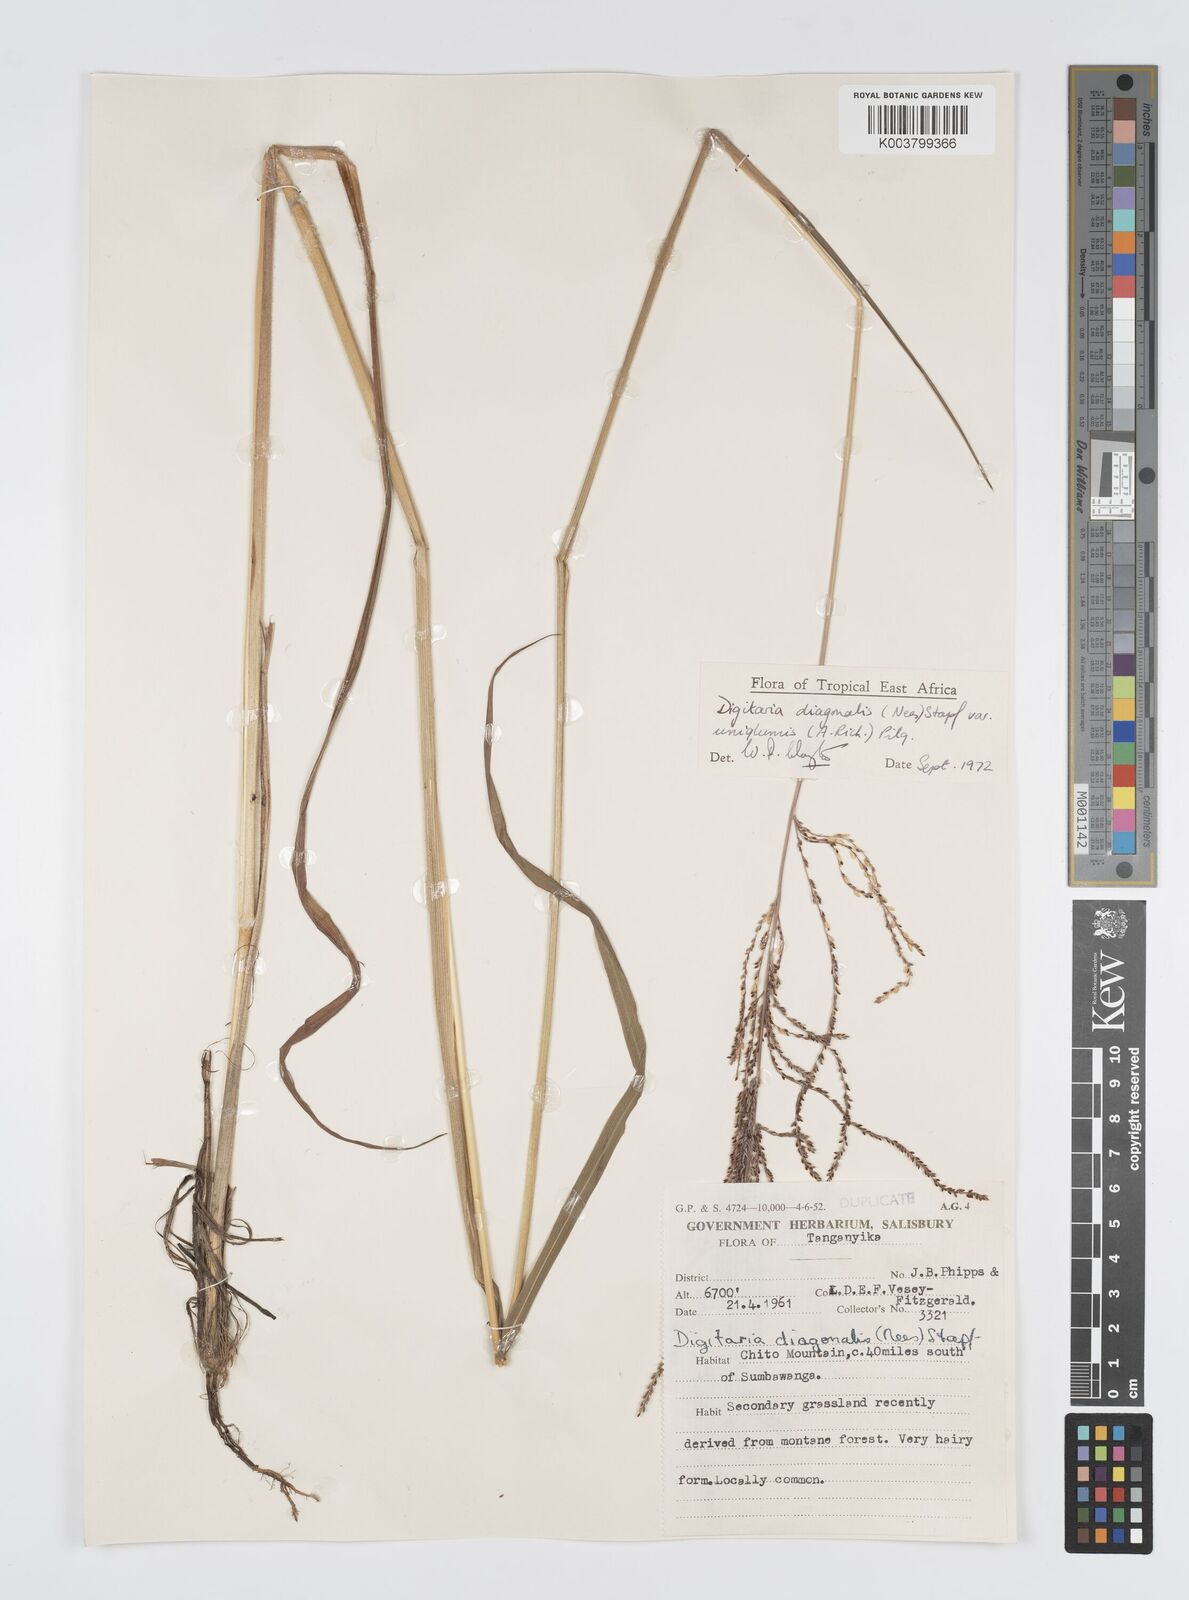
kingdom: Plantae
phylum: Tracheophyta
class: Liliopsida
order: Poales
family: Poaceae
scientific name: Poaceae
